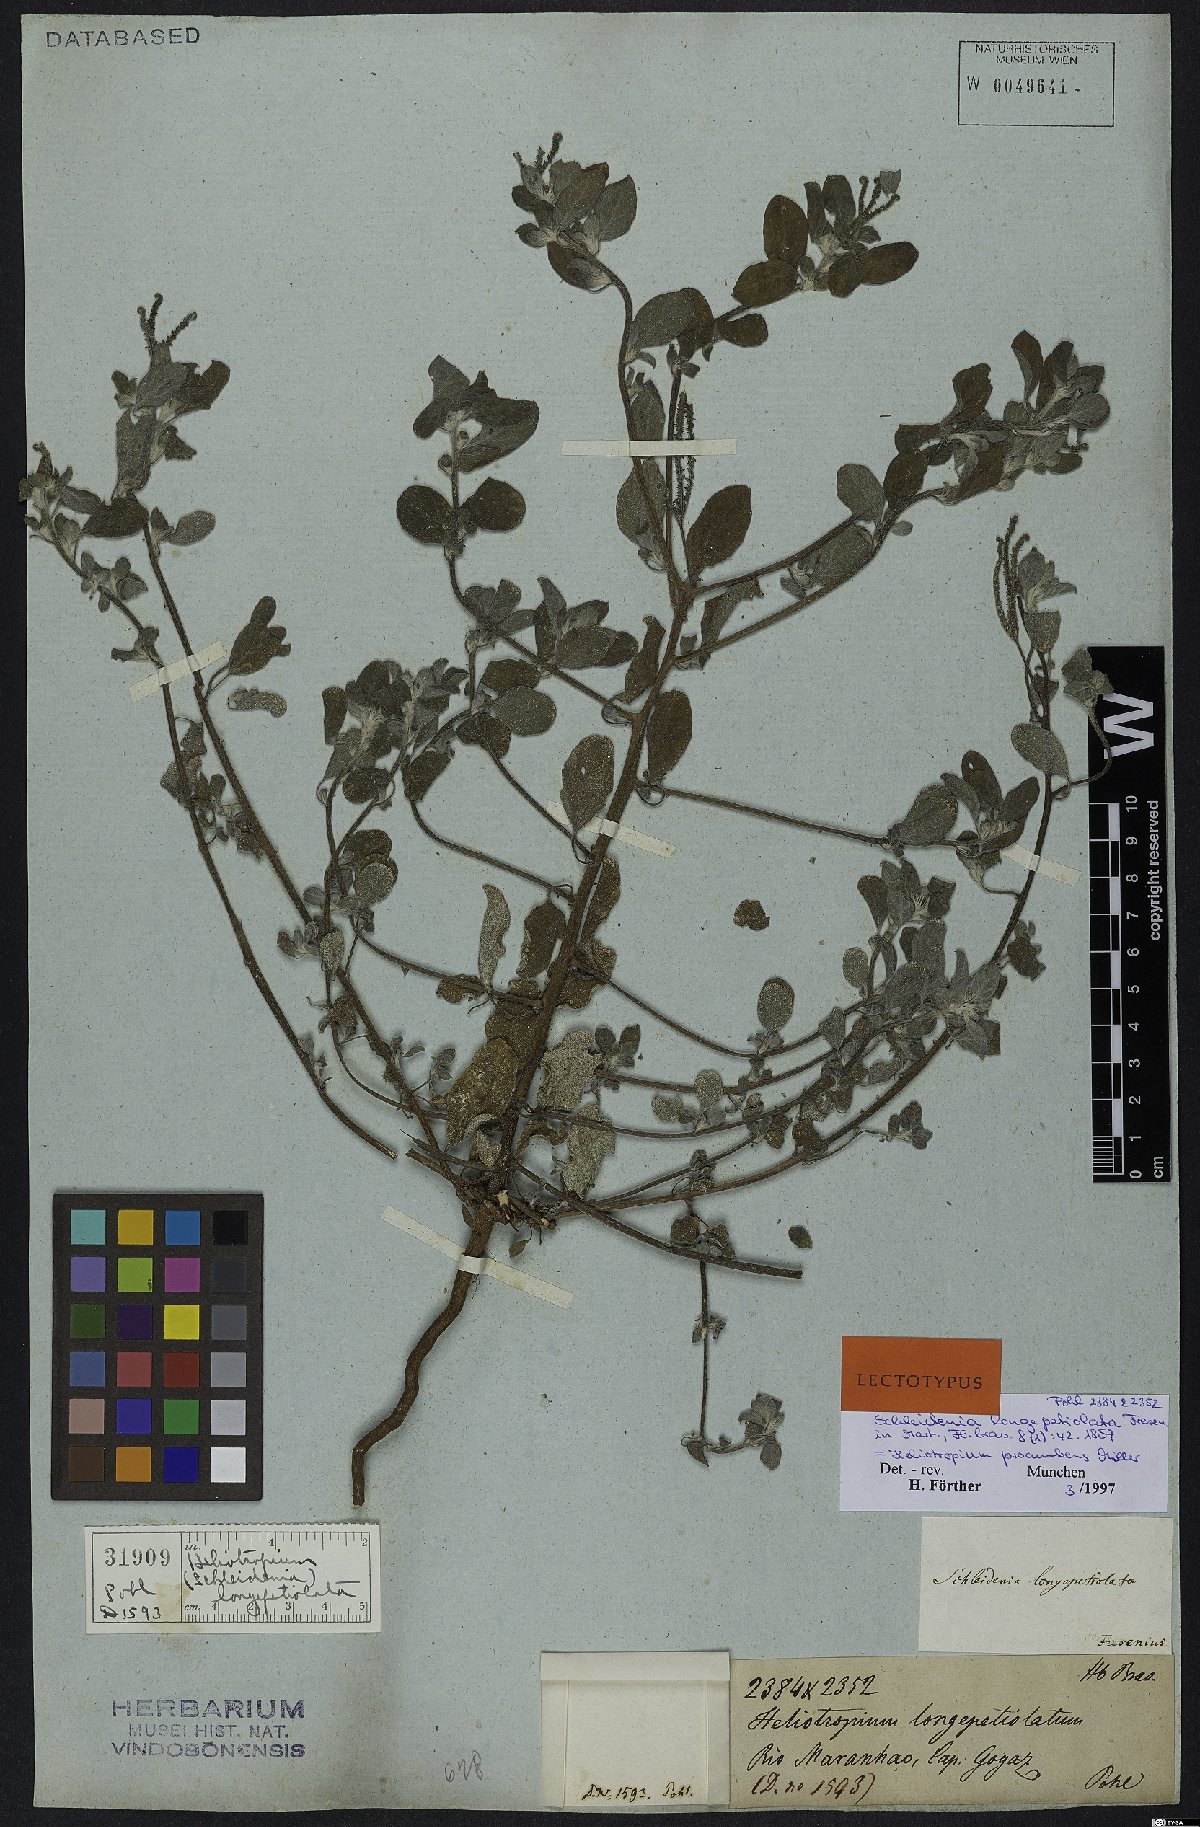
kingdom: Plantae
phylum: Tracheophyta
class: Magnoliopsida
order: Boraginales
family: Heliotropiaceae
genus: Euploca
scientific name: Euploca procumbens
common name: Fourspike heliotrope
